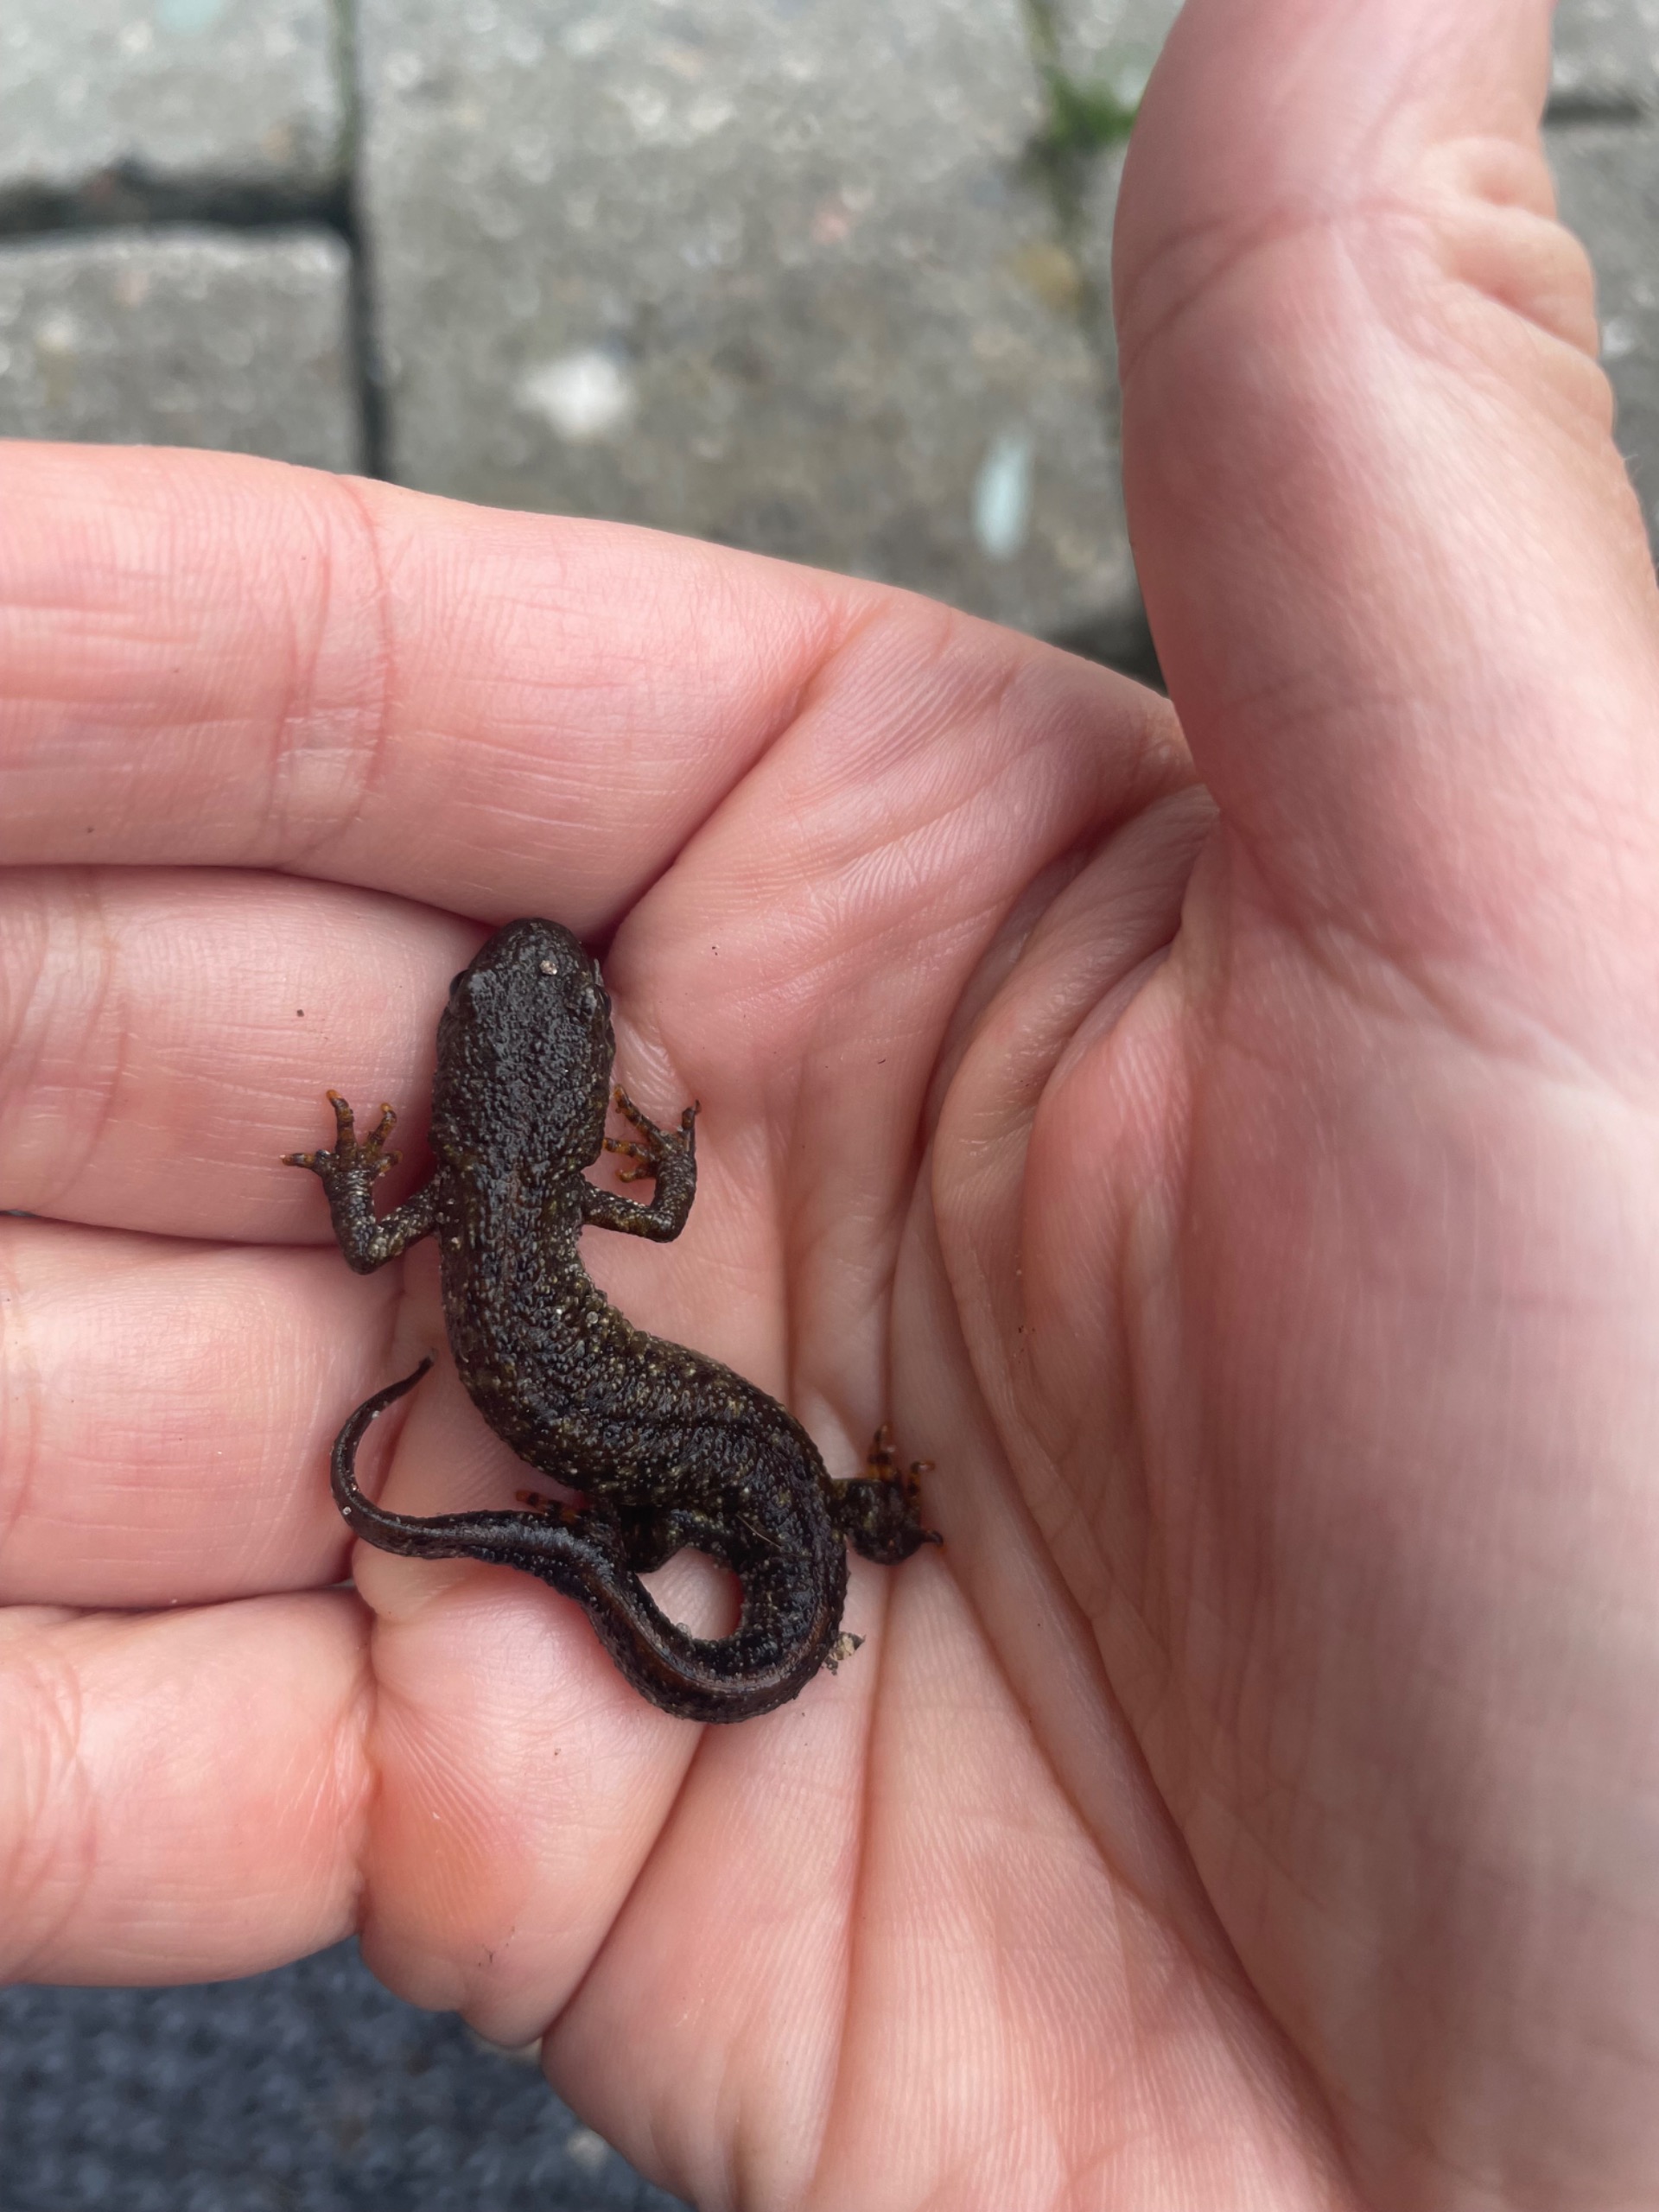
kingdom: Animalia
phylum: Chordata
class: Amphibia
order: Caudata
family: Salamandridae
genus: Triturus
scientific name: Triturus cristatus
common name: Stor vandsalamander
